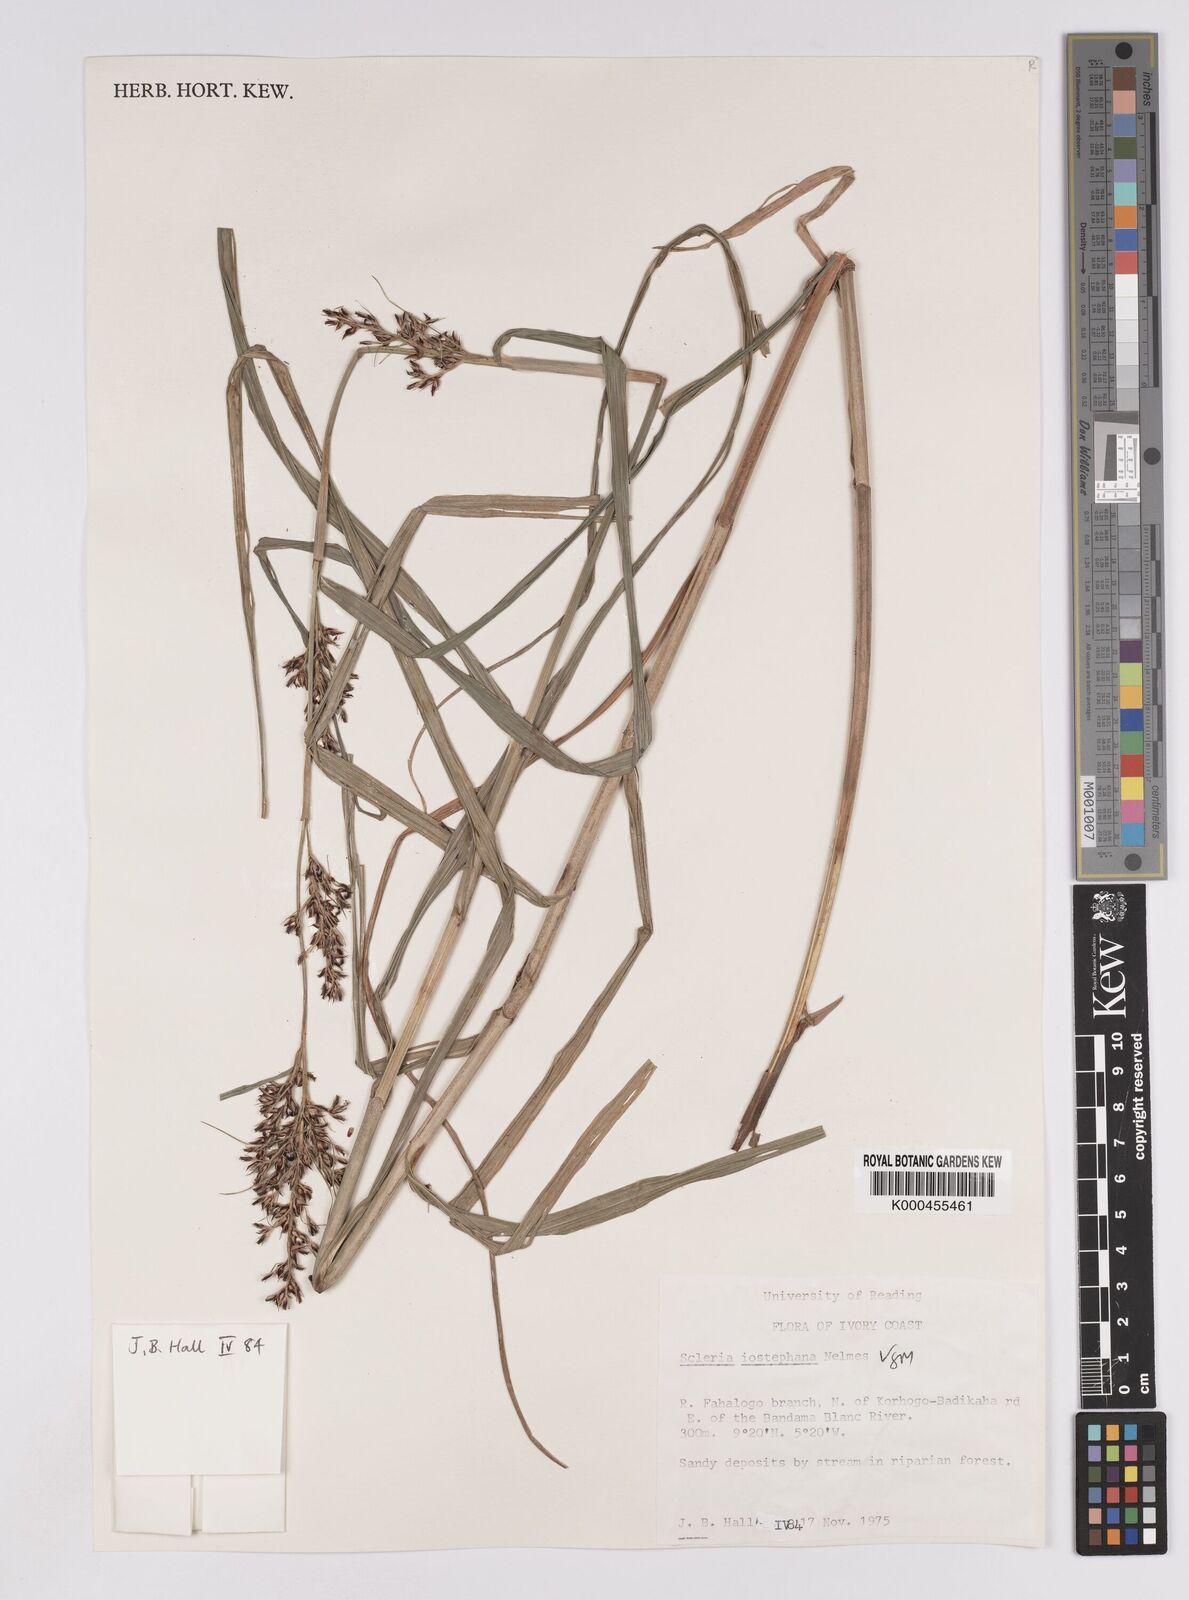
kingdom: Plantae
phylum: Tracheophyta
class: Liliopsida
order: Poales
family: Cyperaceae
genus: Scleria
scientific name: Scleria iostephana
